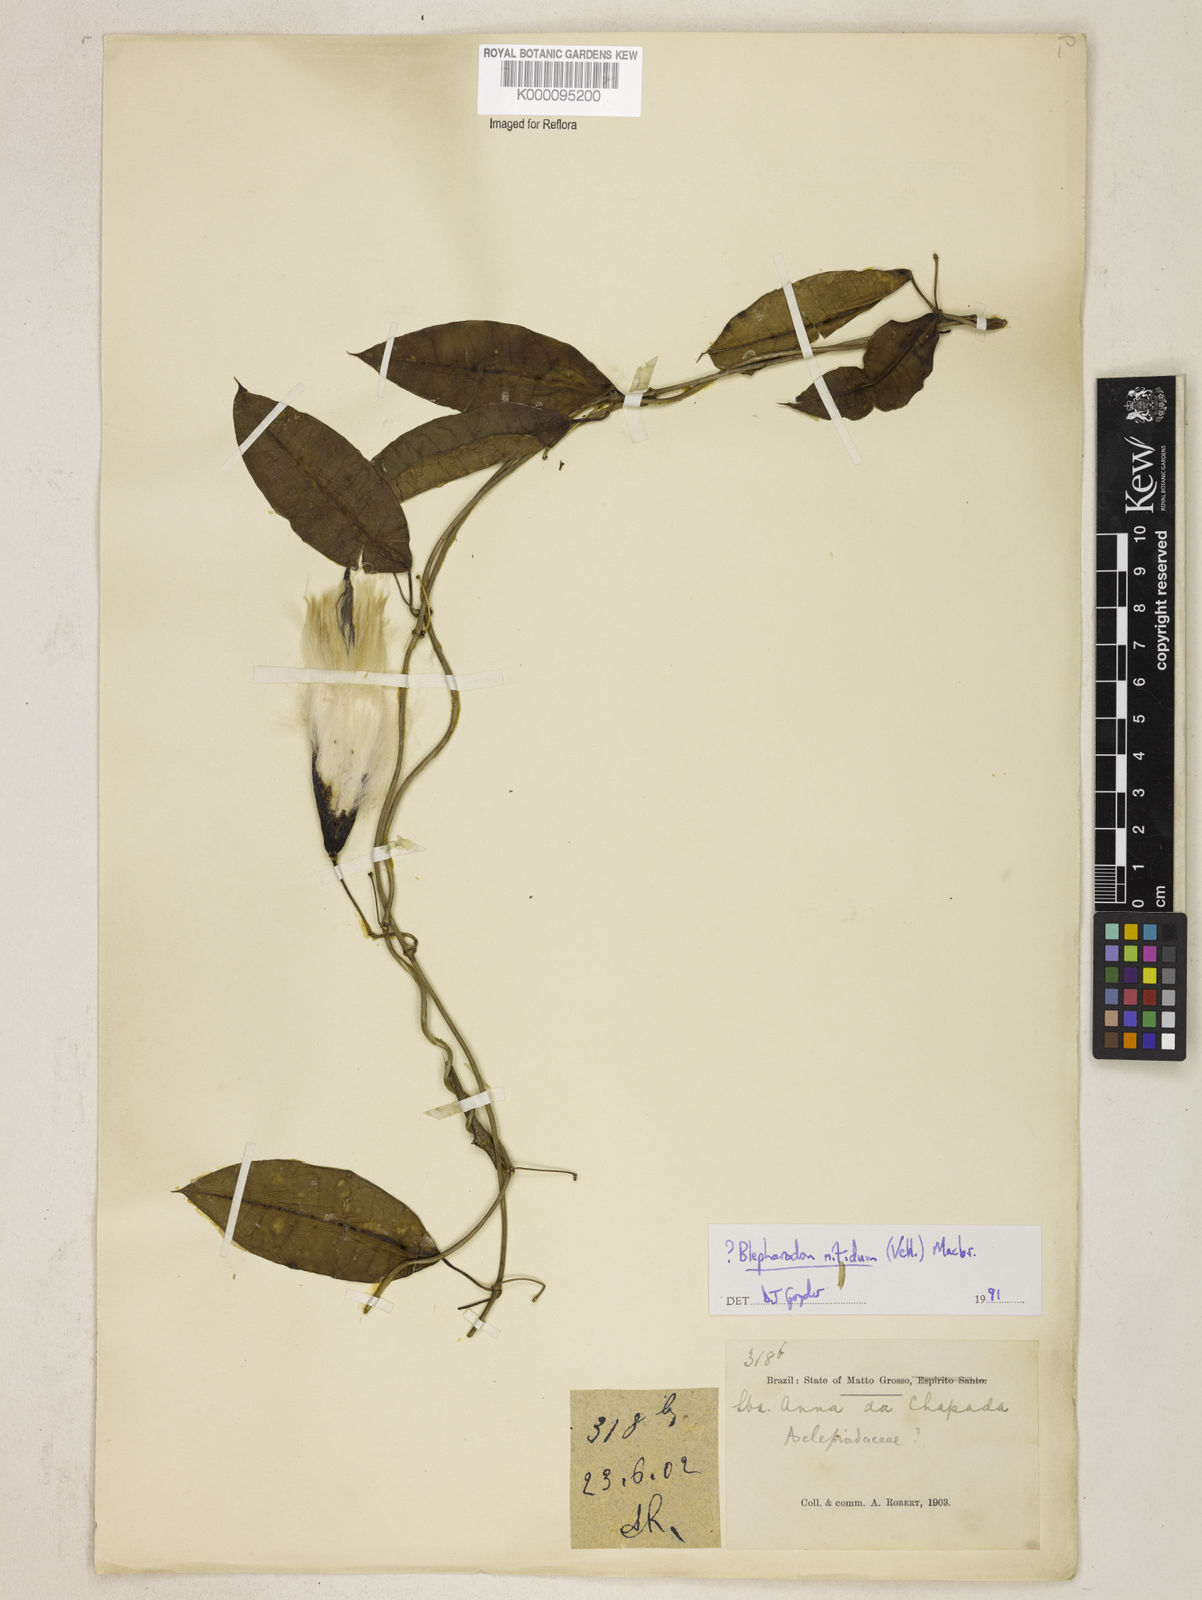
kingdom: Plantae
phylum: Tracheophyta
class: Magnoliopsida
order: Gentianales
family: Apocynaceae
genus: Blepharodon
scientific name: Blepharodon pictum
